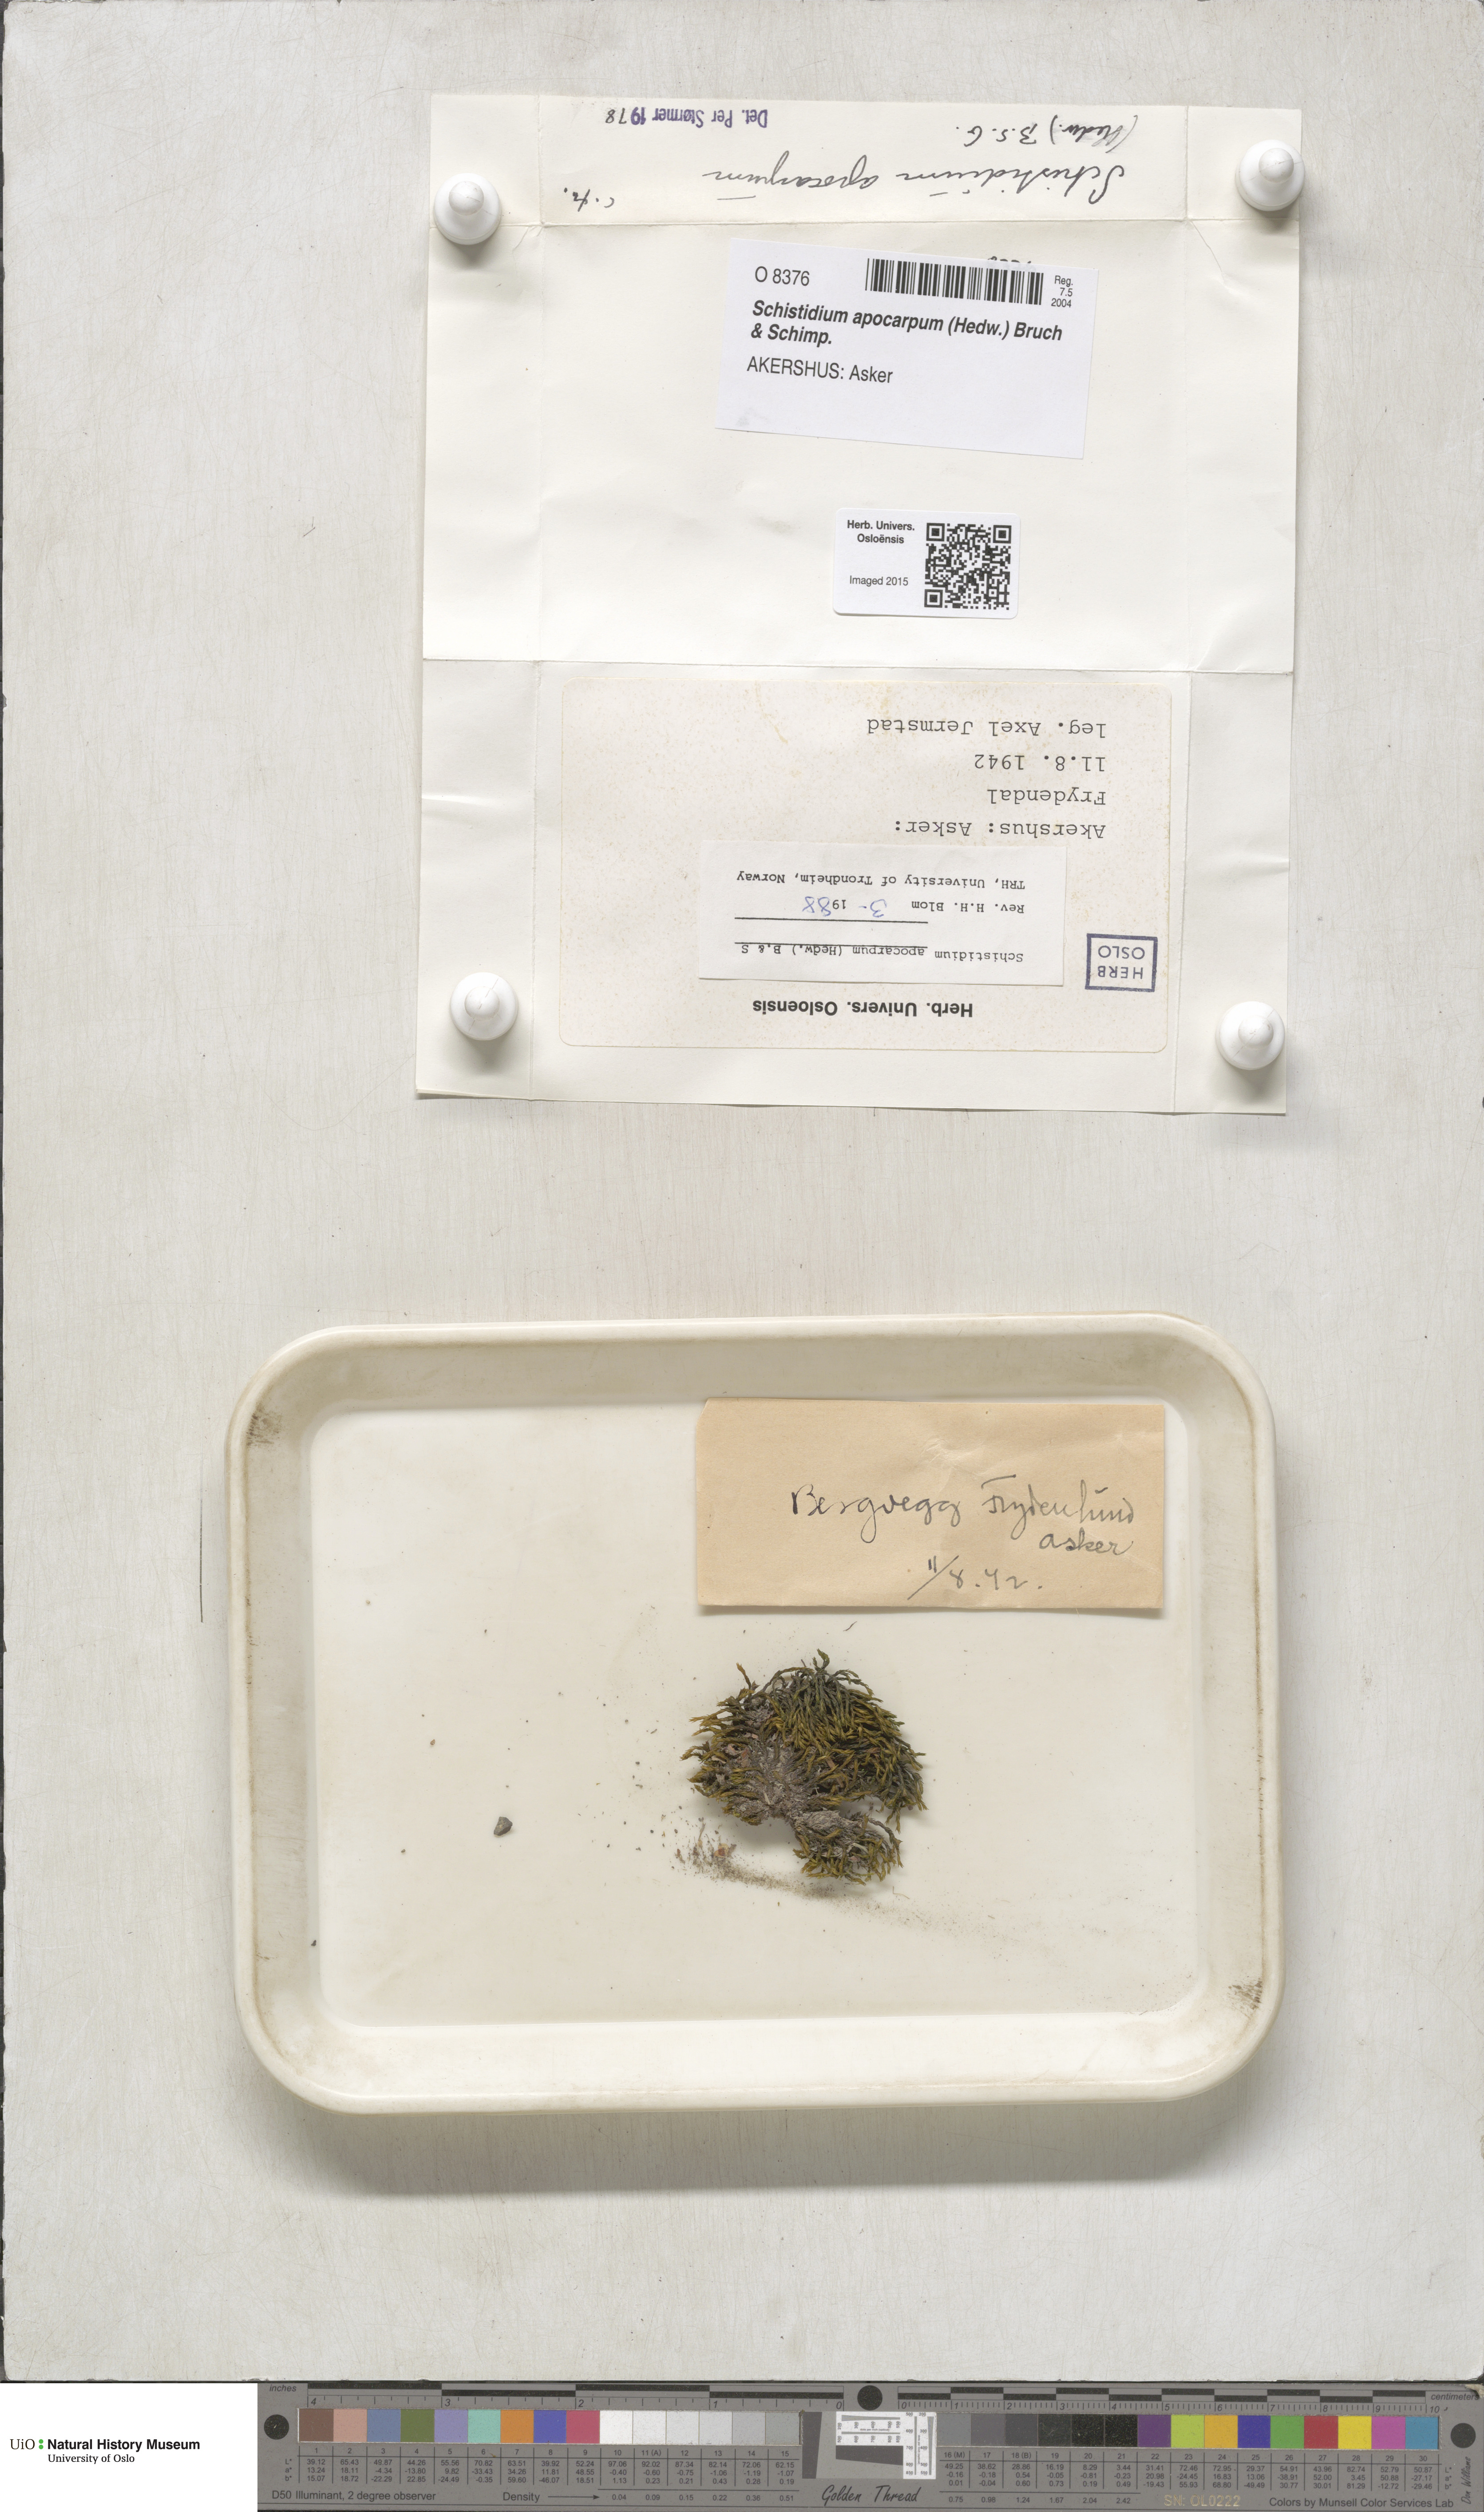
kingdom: Plantae
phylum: Bryophyta
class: Bryopsida
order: Grimmiales
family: Grimmiaceae
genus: Schistidium
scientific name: Schistidium apocarpum
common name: Radiate bloom moss
